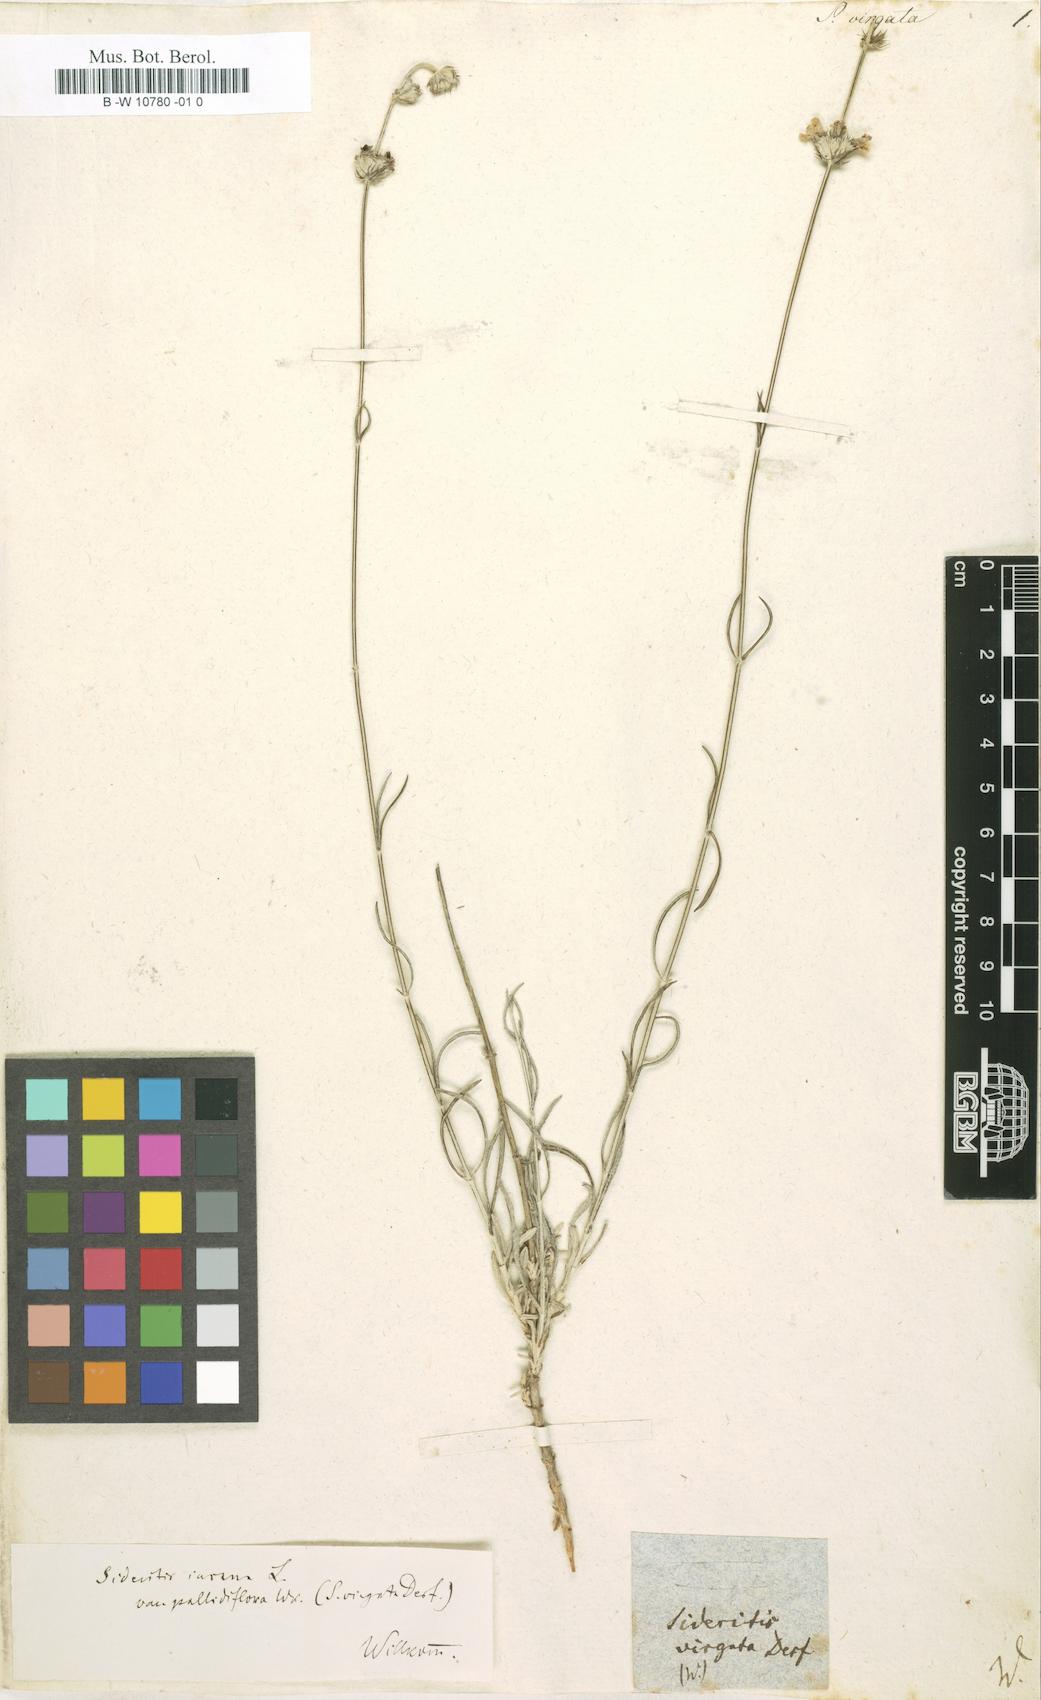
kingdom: Plantae
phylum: Tracheophyta
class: Magnoliopsida
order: Lamiales
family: Lamiaceae
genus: Sideritis
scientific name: Sideritis incana
